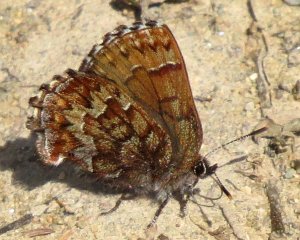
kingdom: Animalia
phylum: Arthropoda
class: Insecta
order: Lepidoptera
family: Lycaenidae
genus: Incisalia
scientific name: Incisalia niphon
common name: Eastern Pine Elfin
